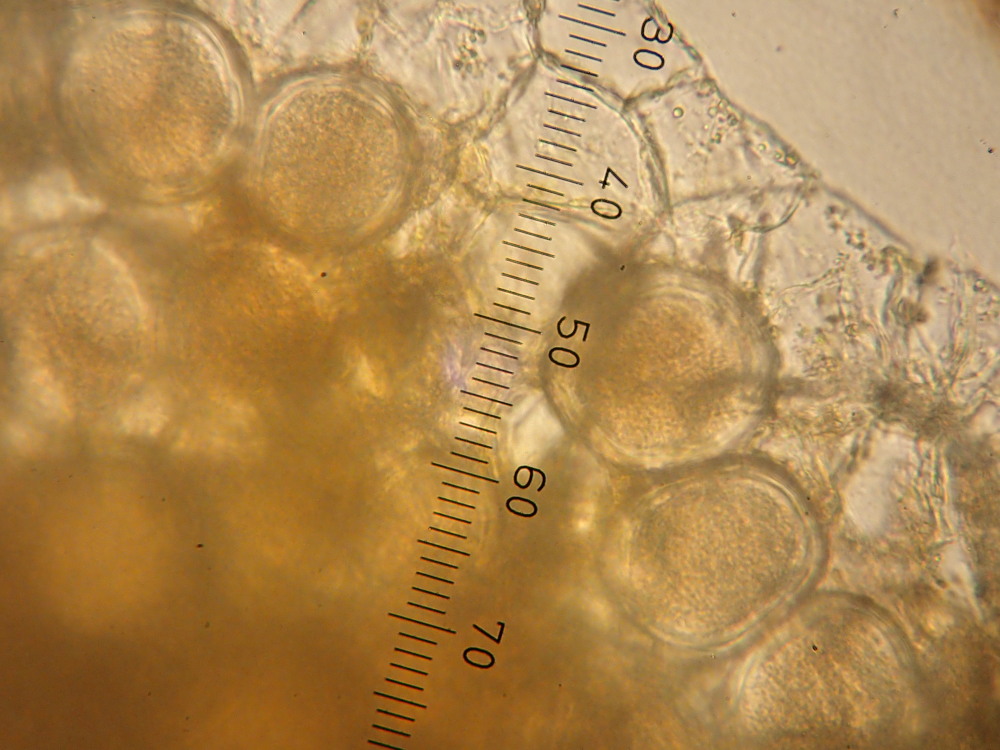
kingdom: Fungi
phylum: Ascomycota
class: Taphrinomycetes
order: Taphrinales
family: Taphrinaceae
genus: Protomyces
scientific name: Protomyces macrosporus
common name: skvalderkål-vablesæk
